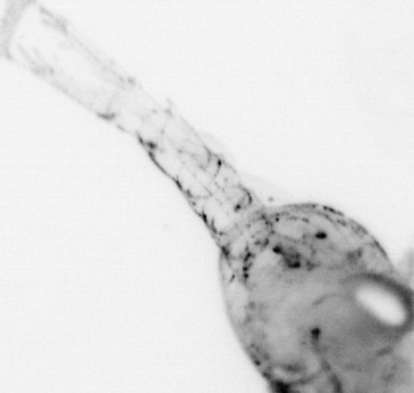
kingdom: Animalia
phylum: Arthropoda
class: Malacostraca
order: Decapoda
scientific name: Decapoda
